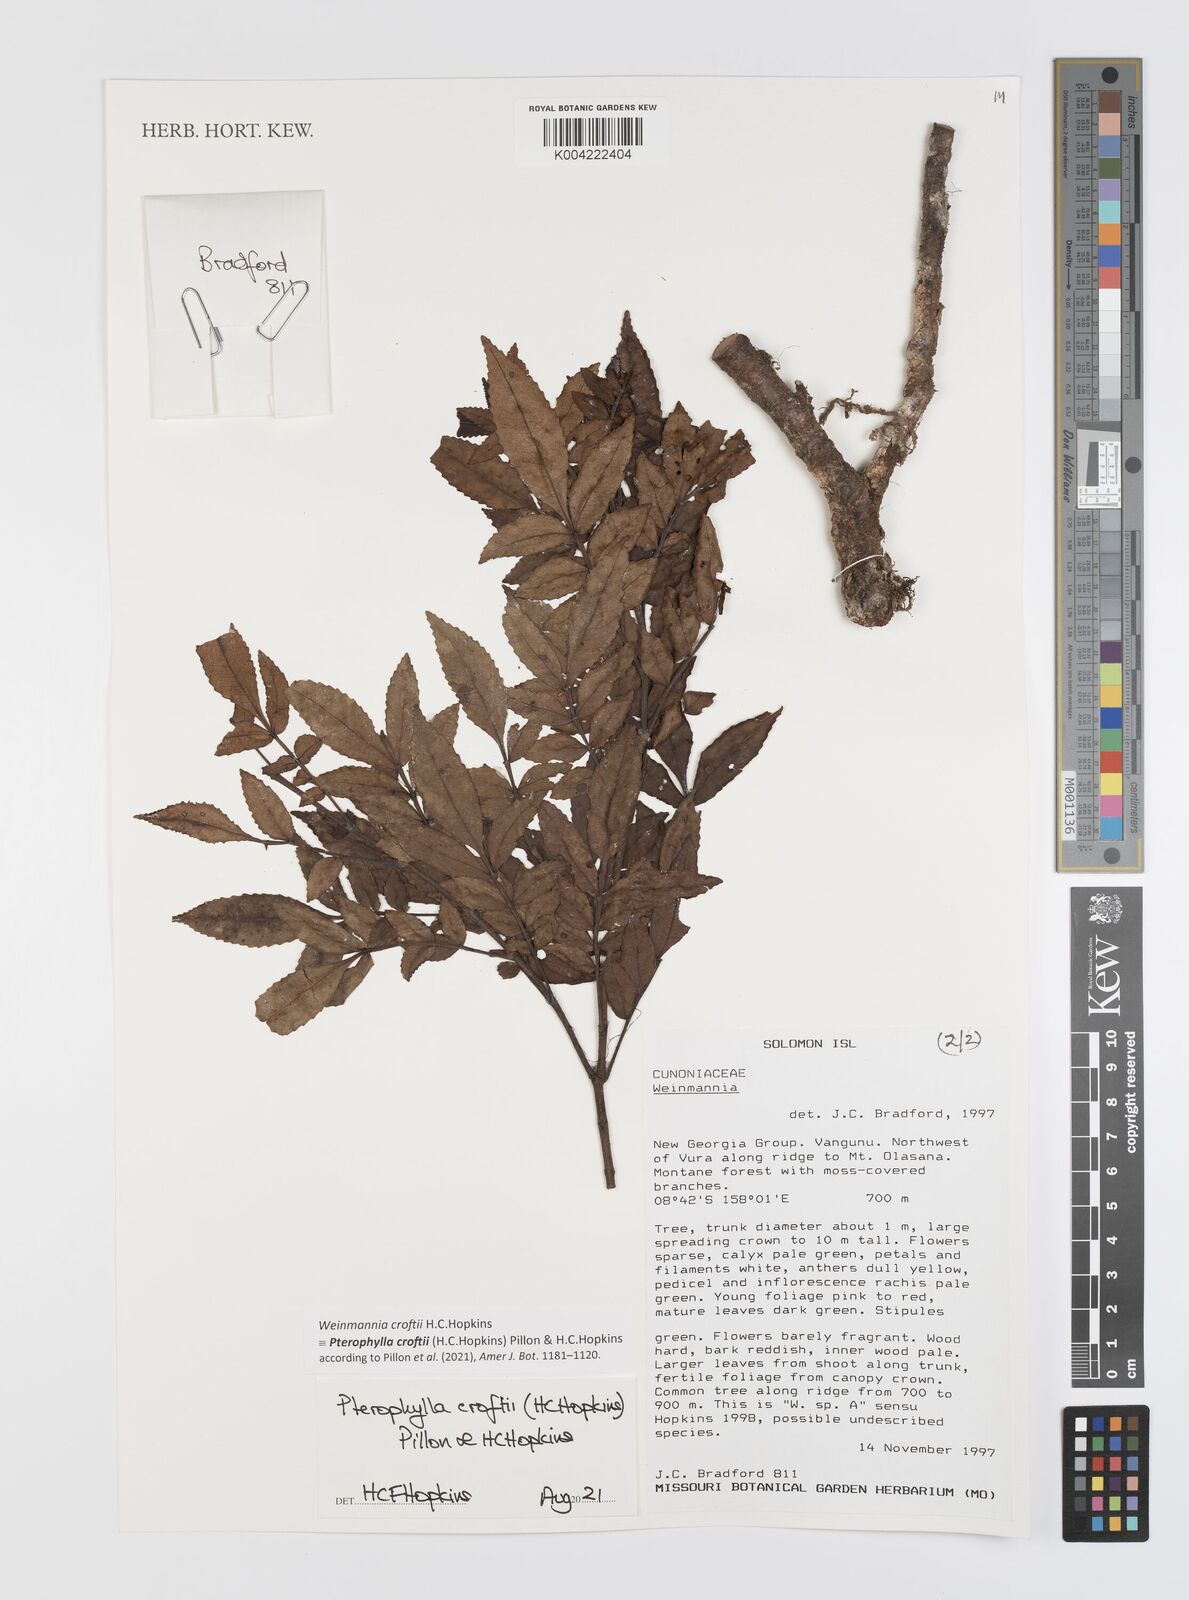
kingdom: Plantae
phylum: Tracheophyta
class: Magnoliopsida
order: Oxalidales
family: Cunoniaceae
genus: Pterophylla
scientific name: Pterophylla croftii
